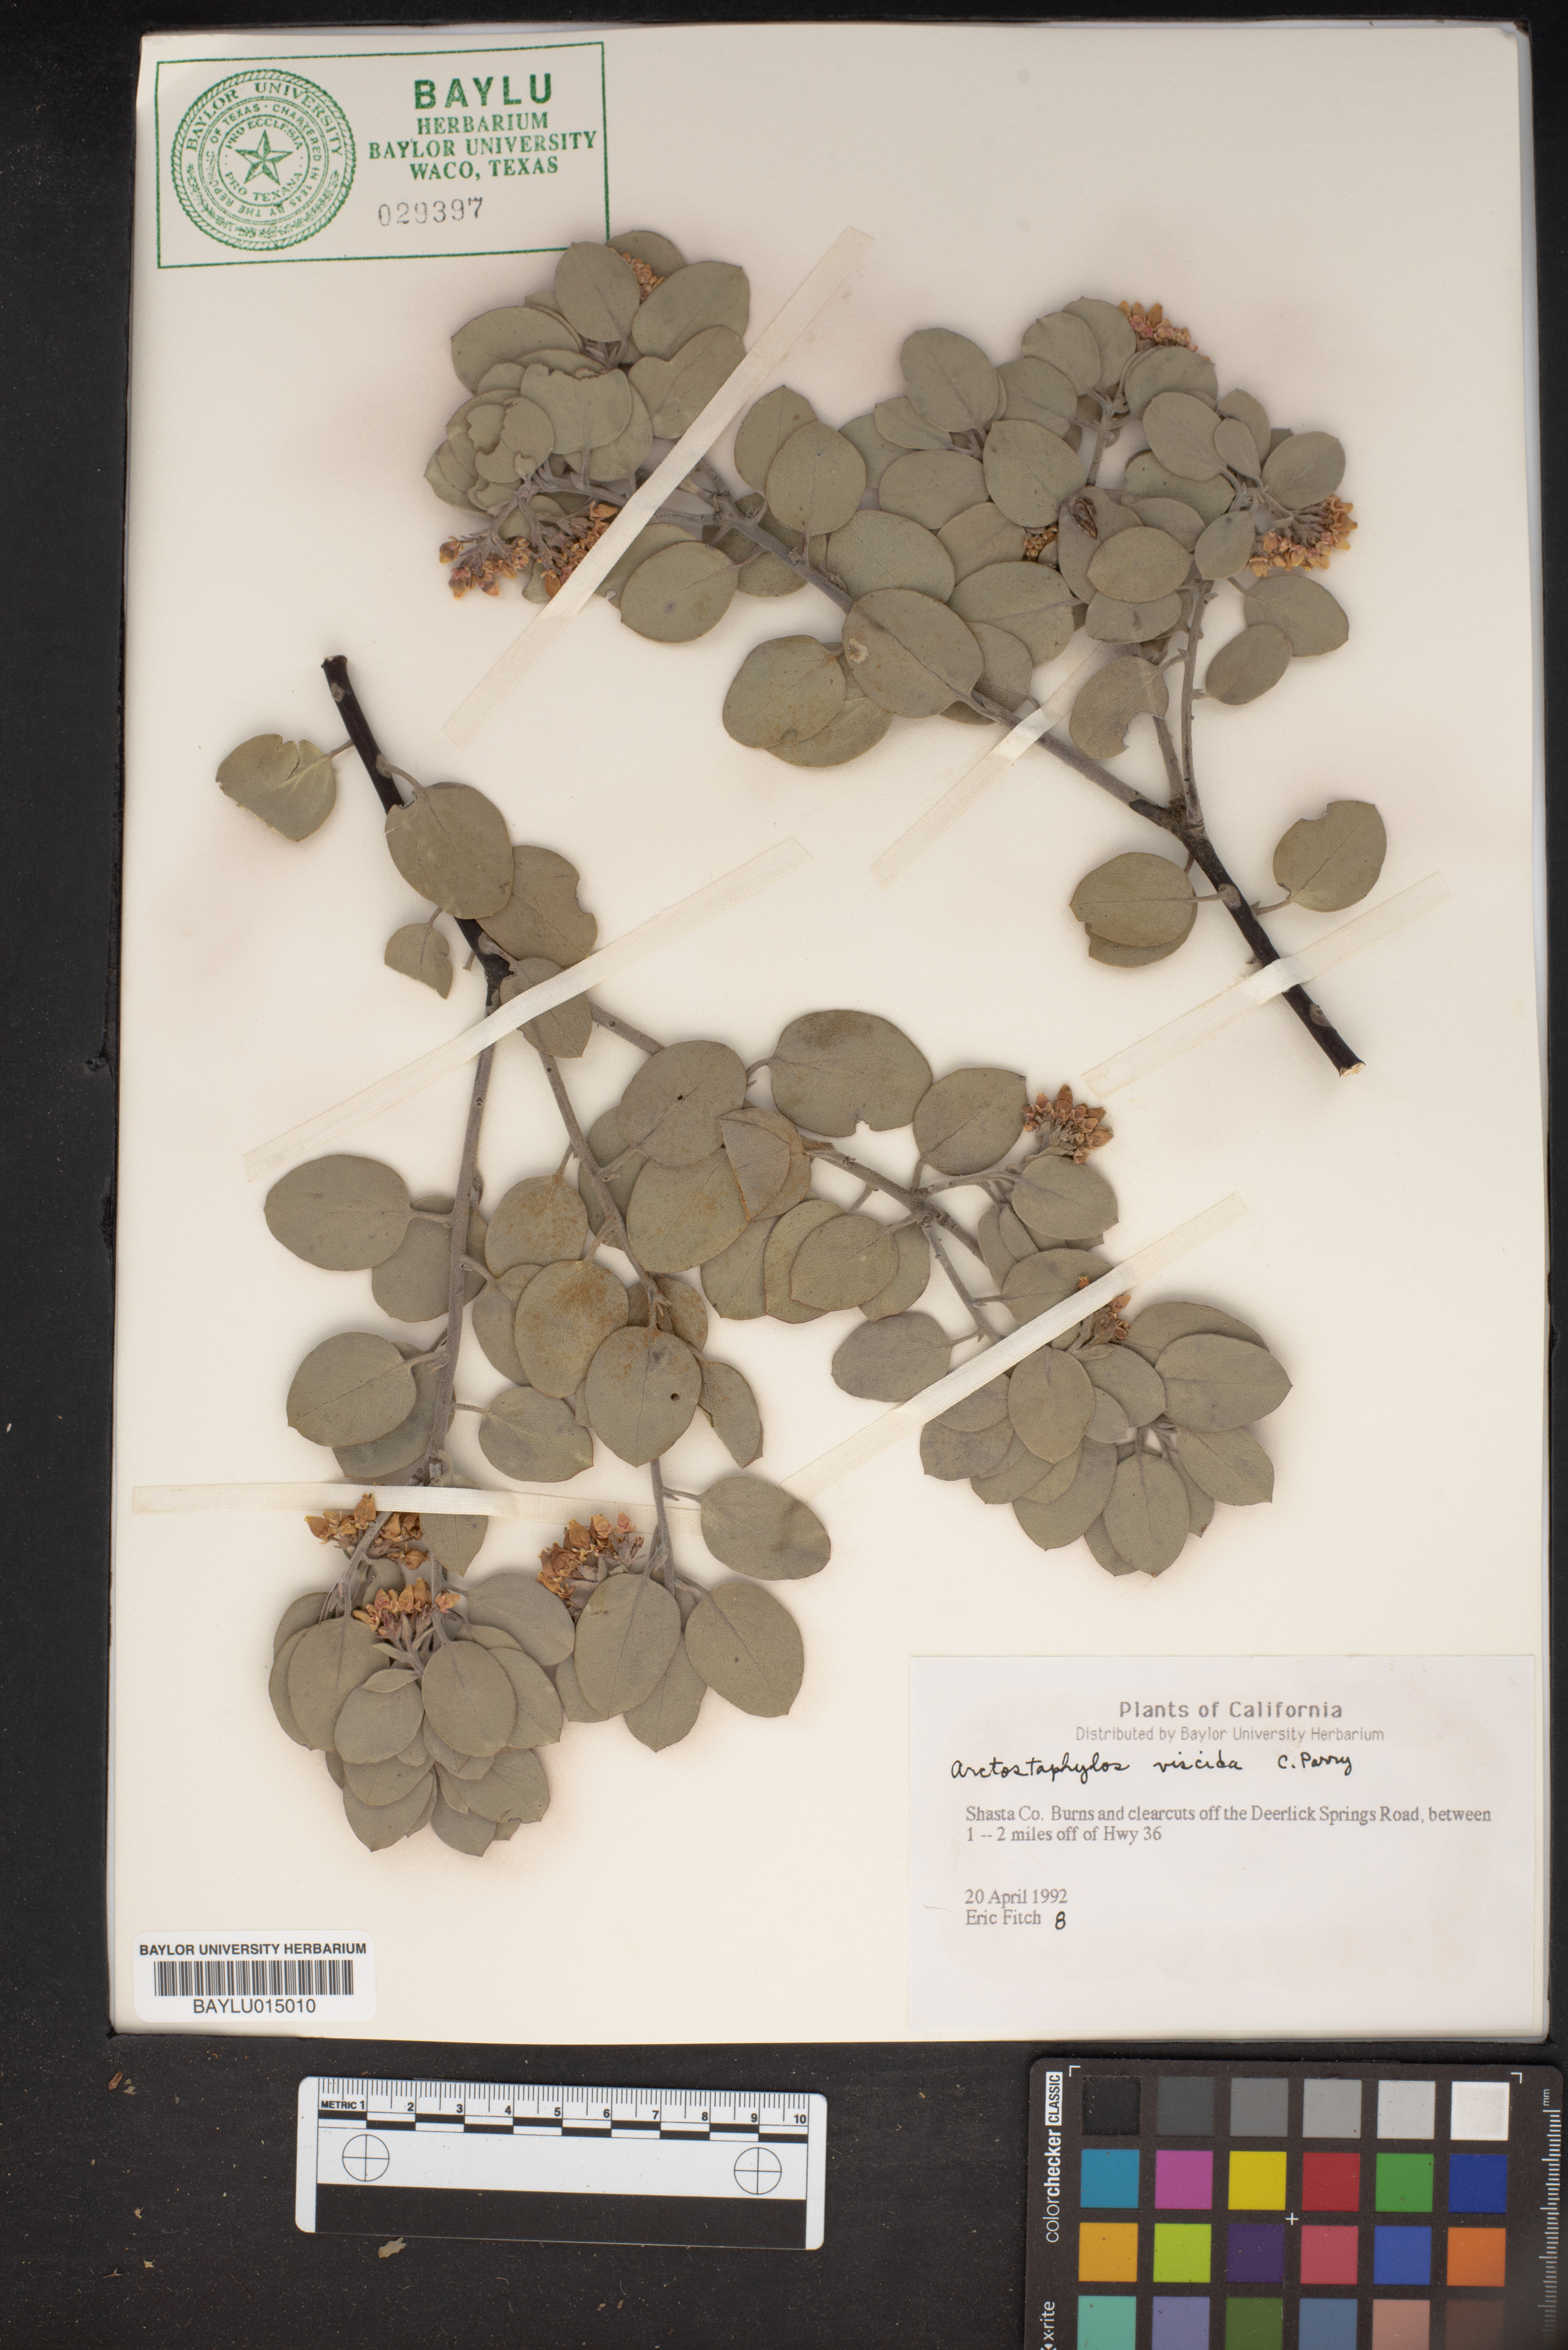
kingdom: Plantae
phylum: Tracheophyta
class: Magnoliopsida
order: Ericales
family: Ericaceae
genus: Arctostaphylos
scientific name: Arctostaphylos viscida
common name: White-leaf manzanita
